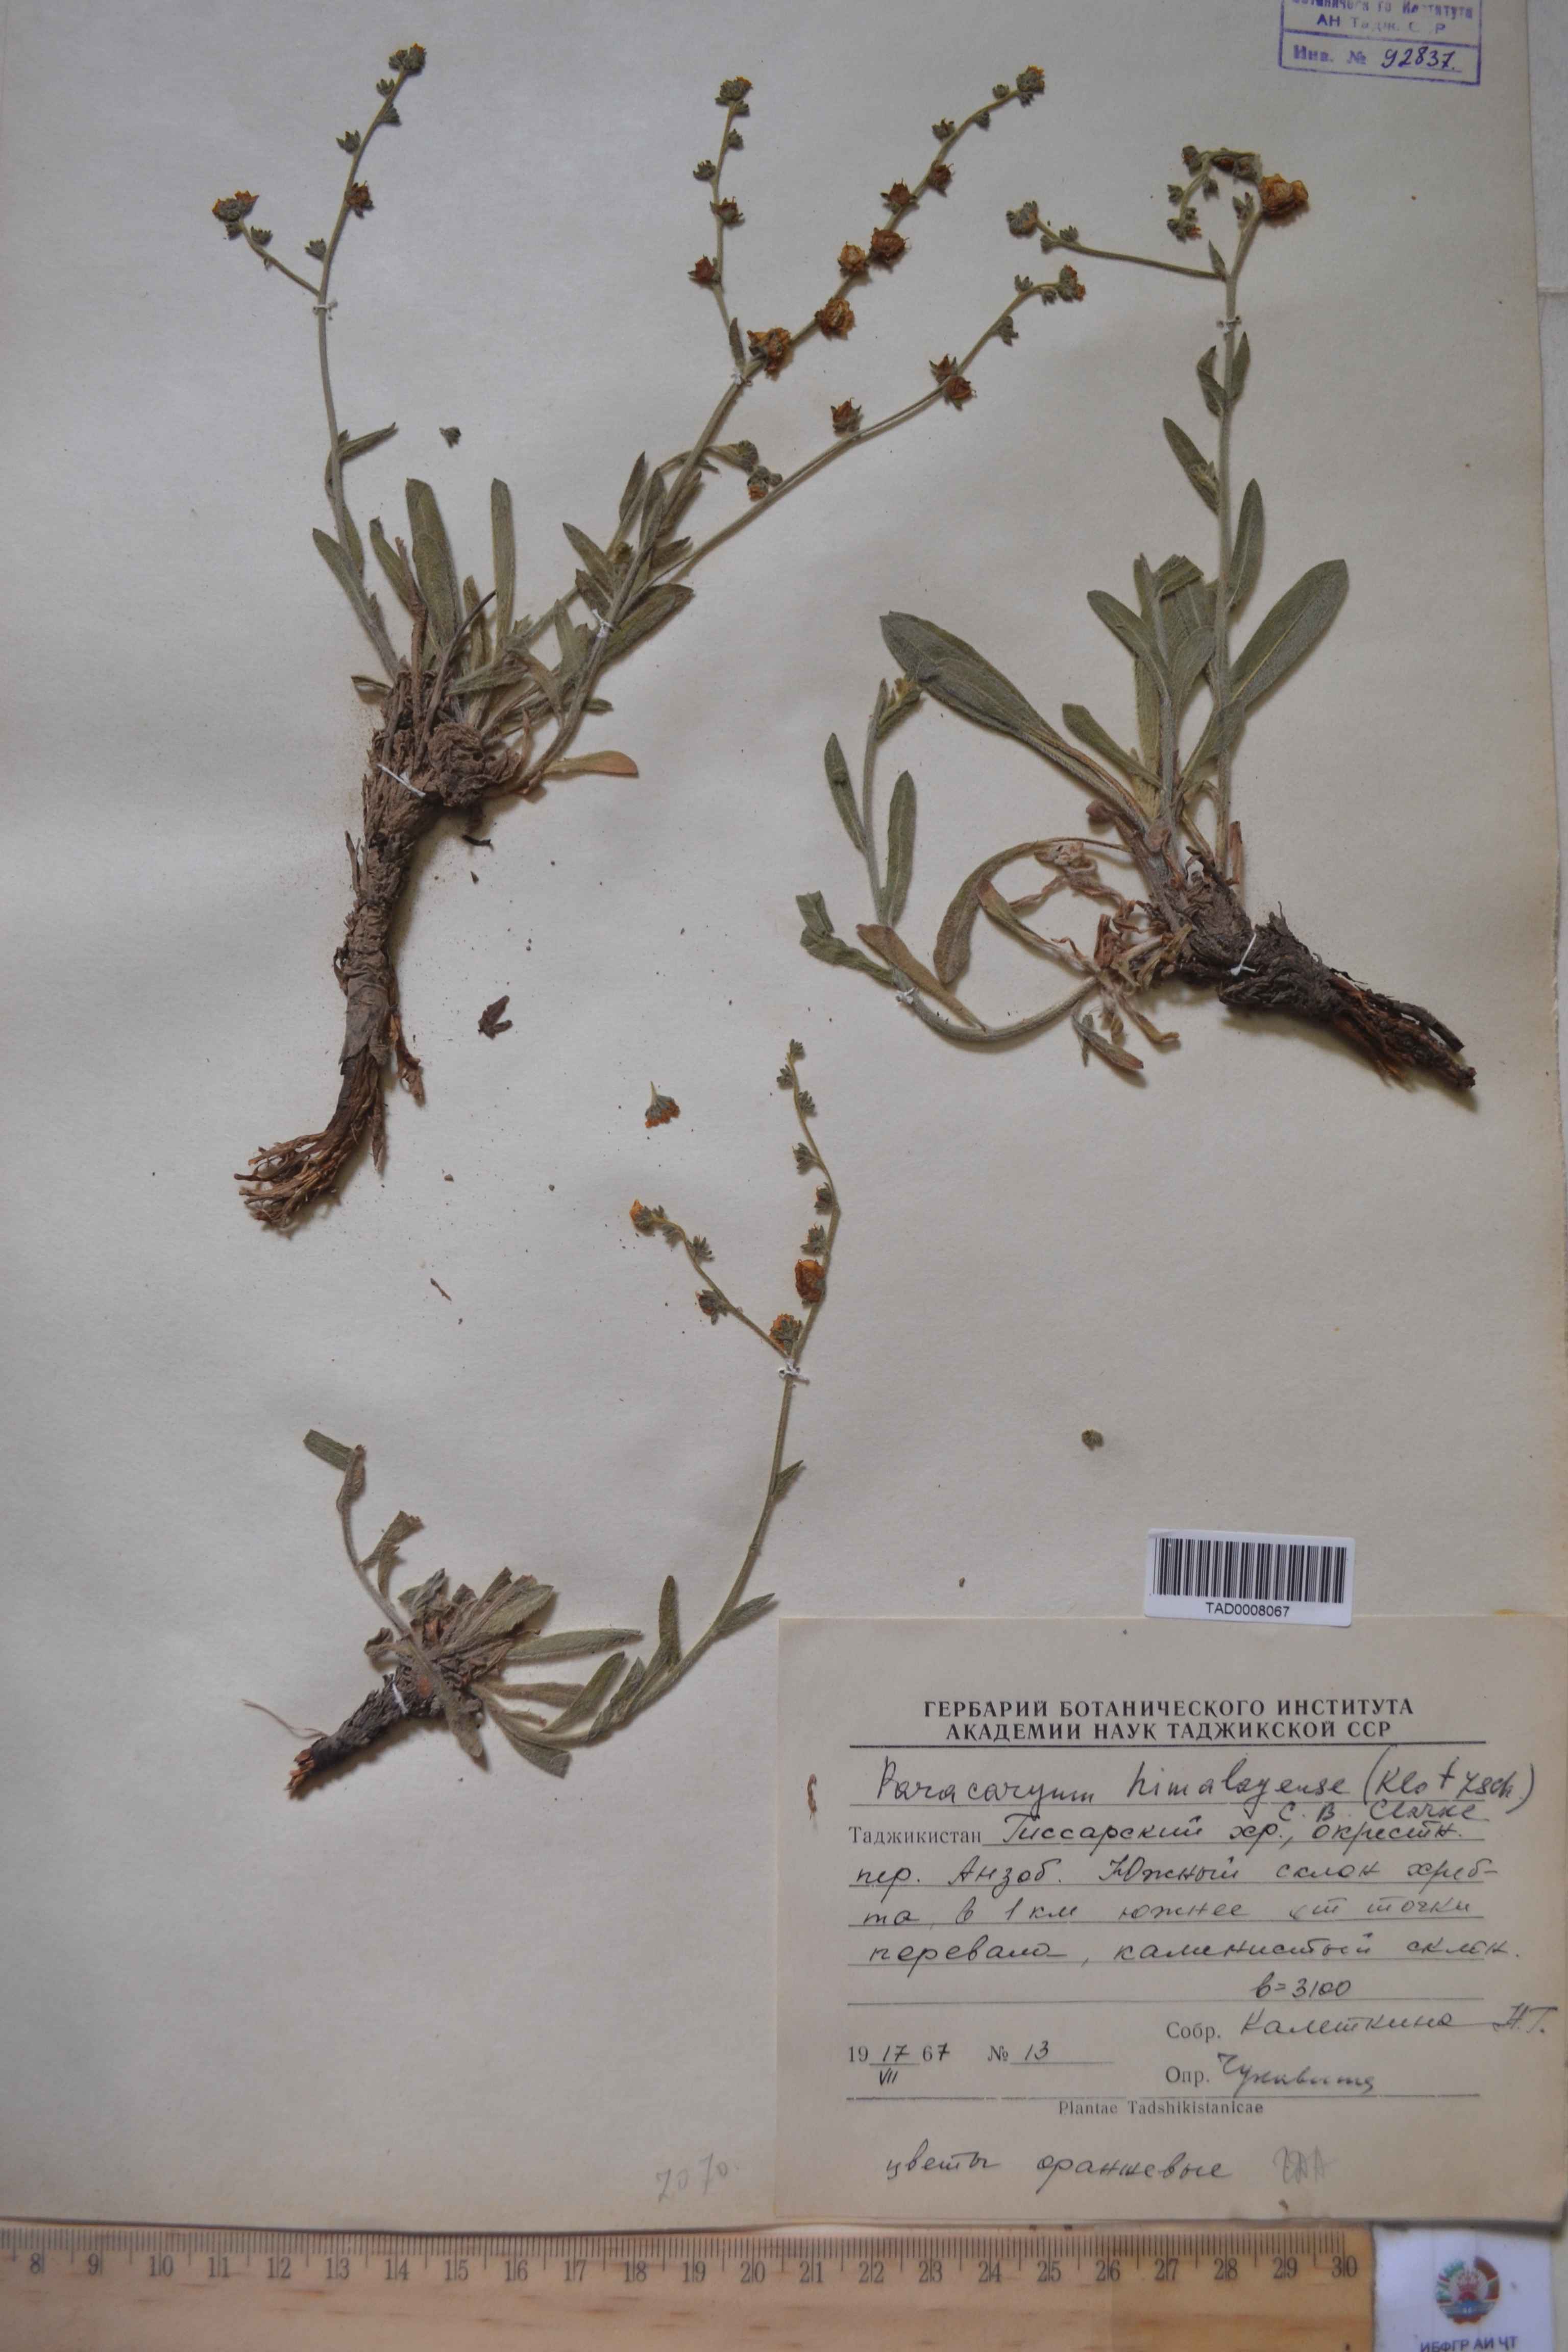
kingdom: Plantae
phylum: Tracheophyta
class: Magnoliopsida
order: Boraginales
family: Boraginaceae
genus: Paracaryum
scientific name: Paracaryum himalayense
